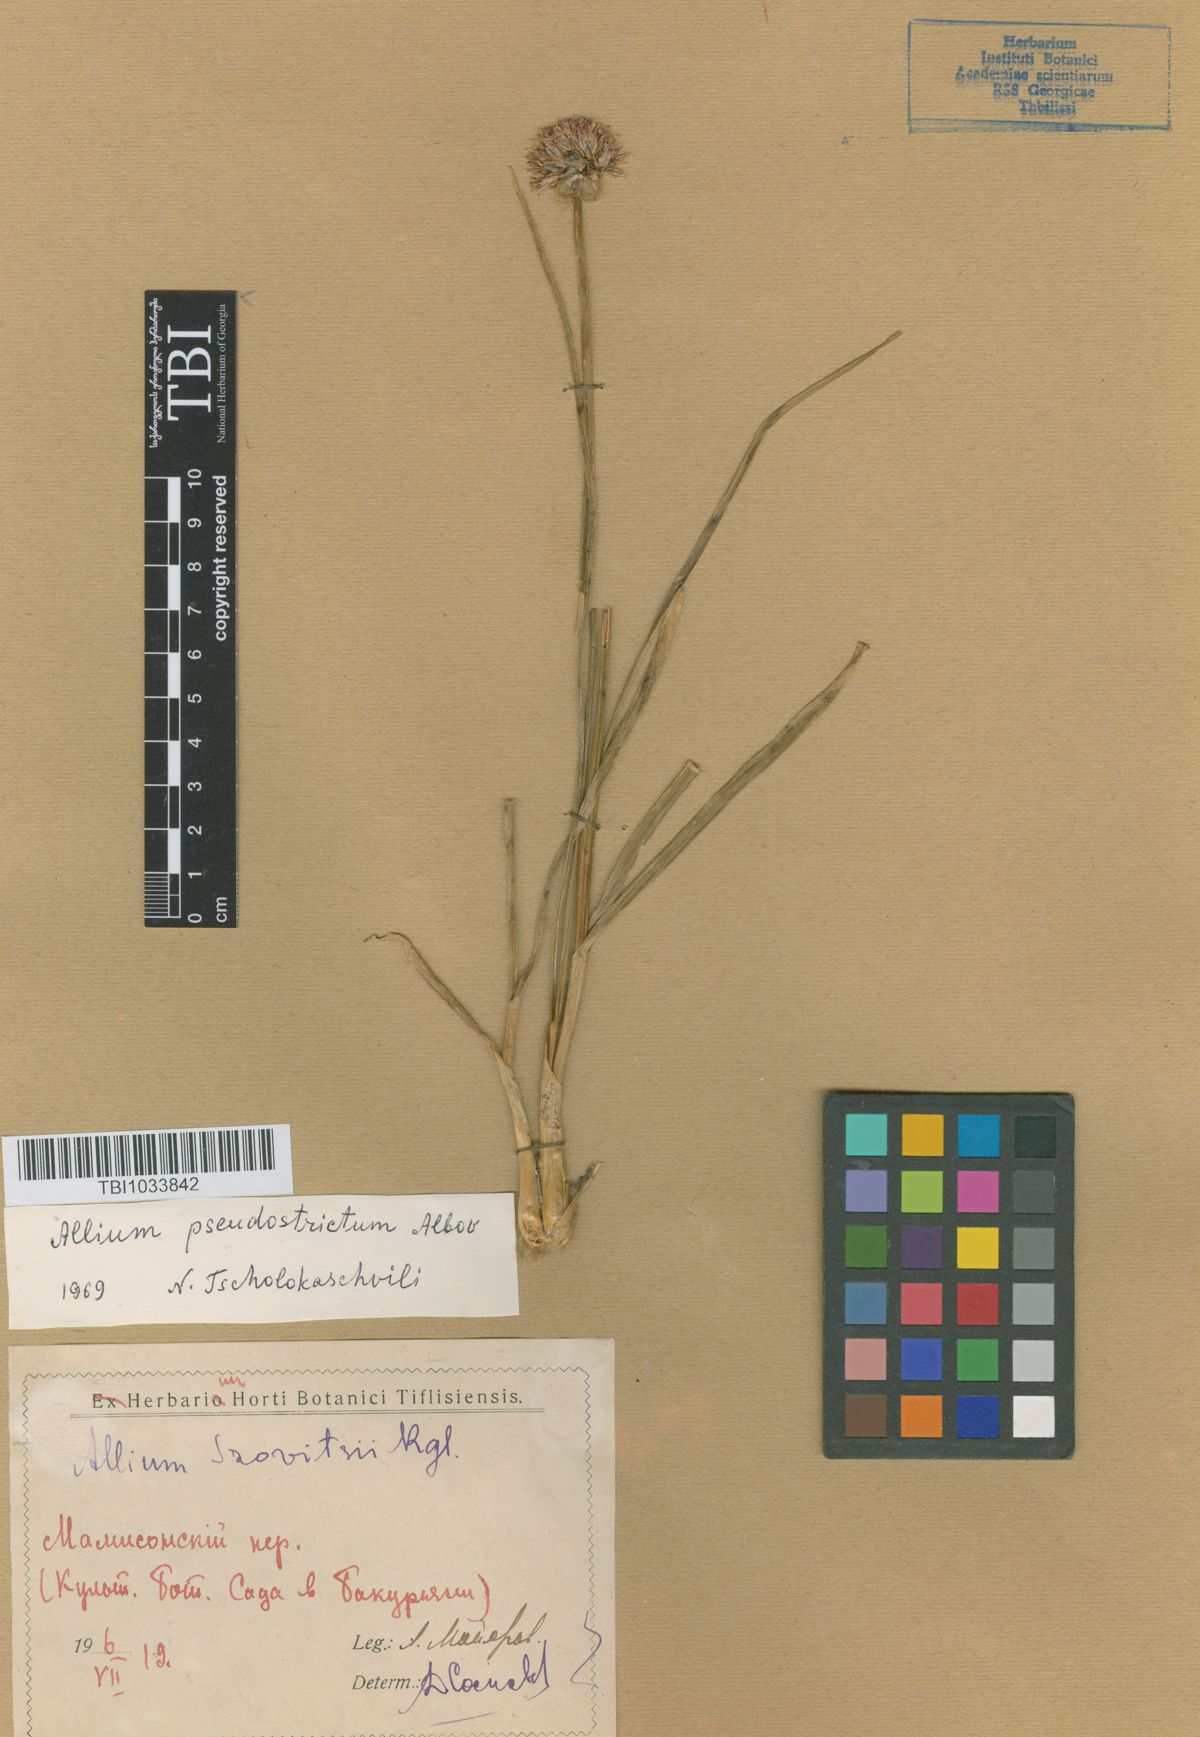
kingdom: Plantae
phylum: Tracheophyta
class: Liliopsida
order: Asparagales
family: Amaryllidaceae
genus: Allium
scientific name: Allium pseudostrictum
